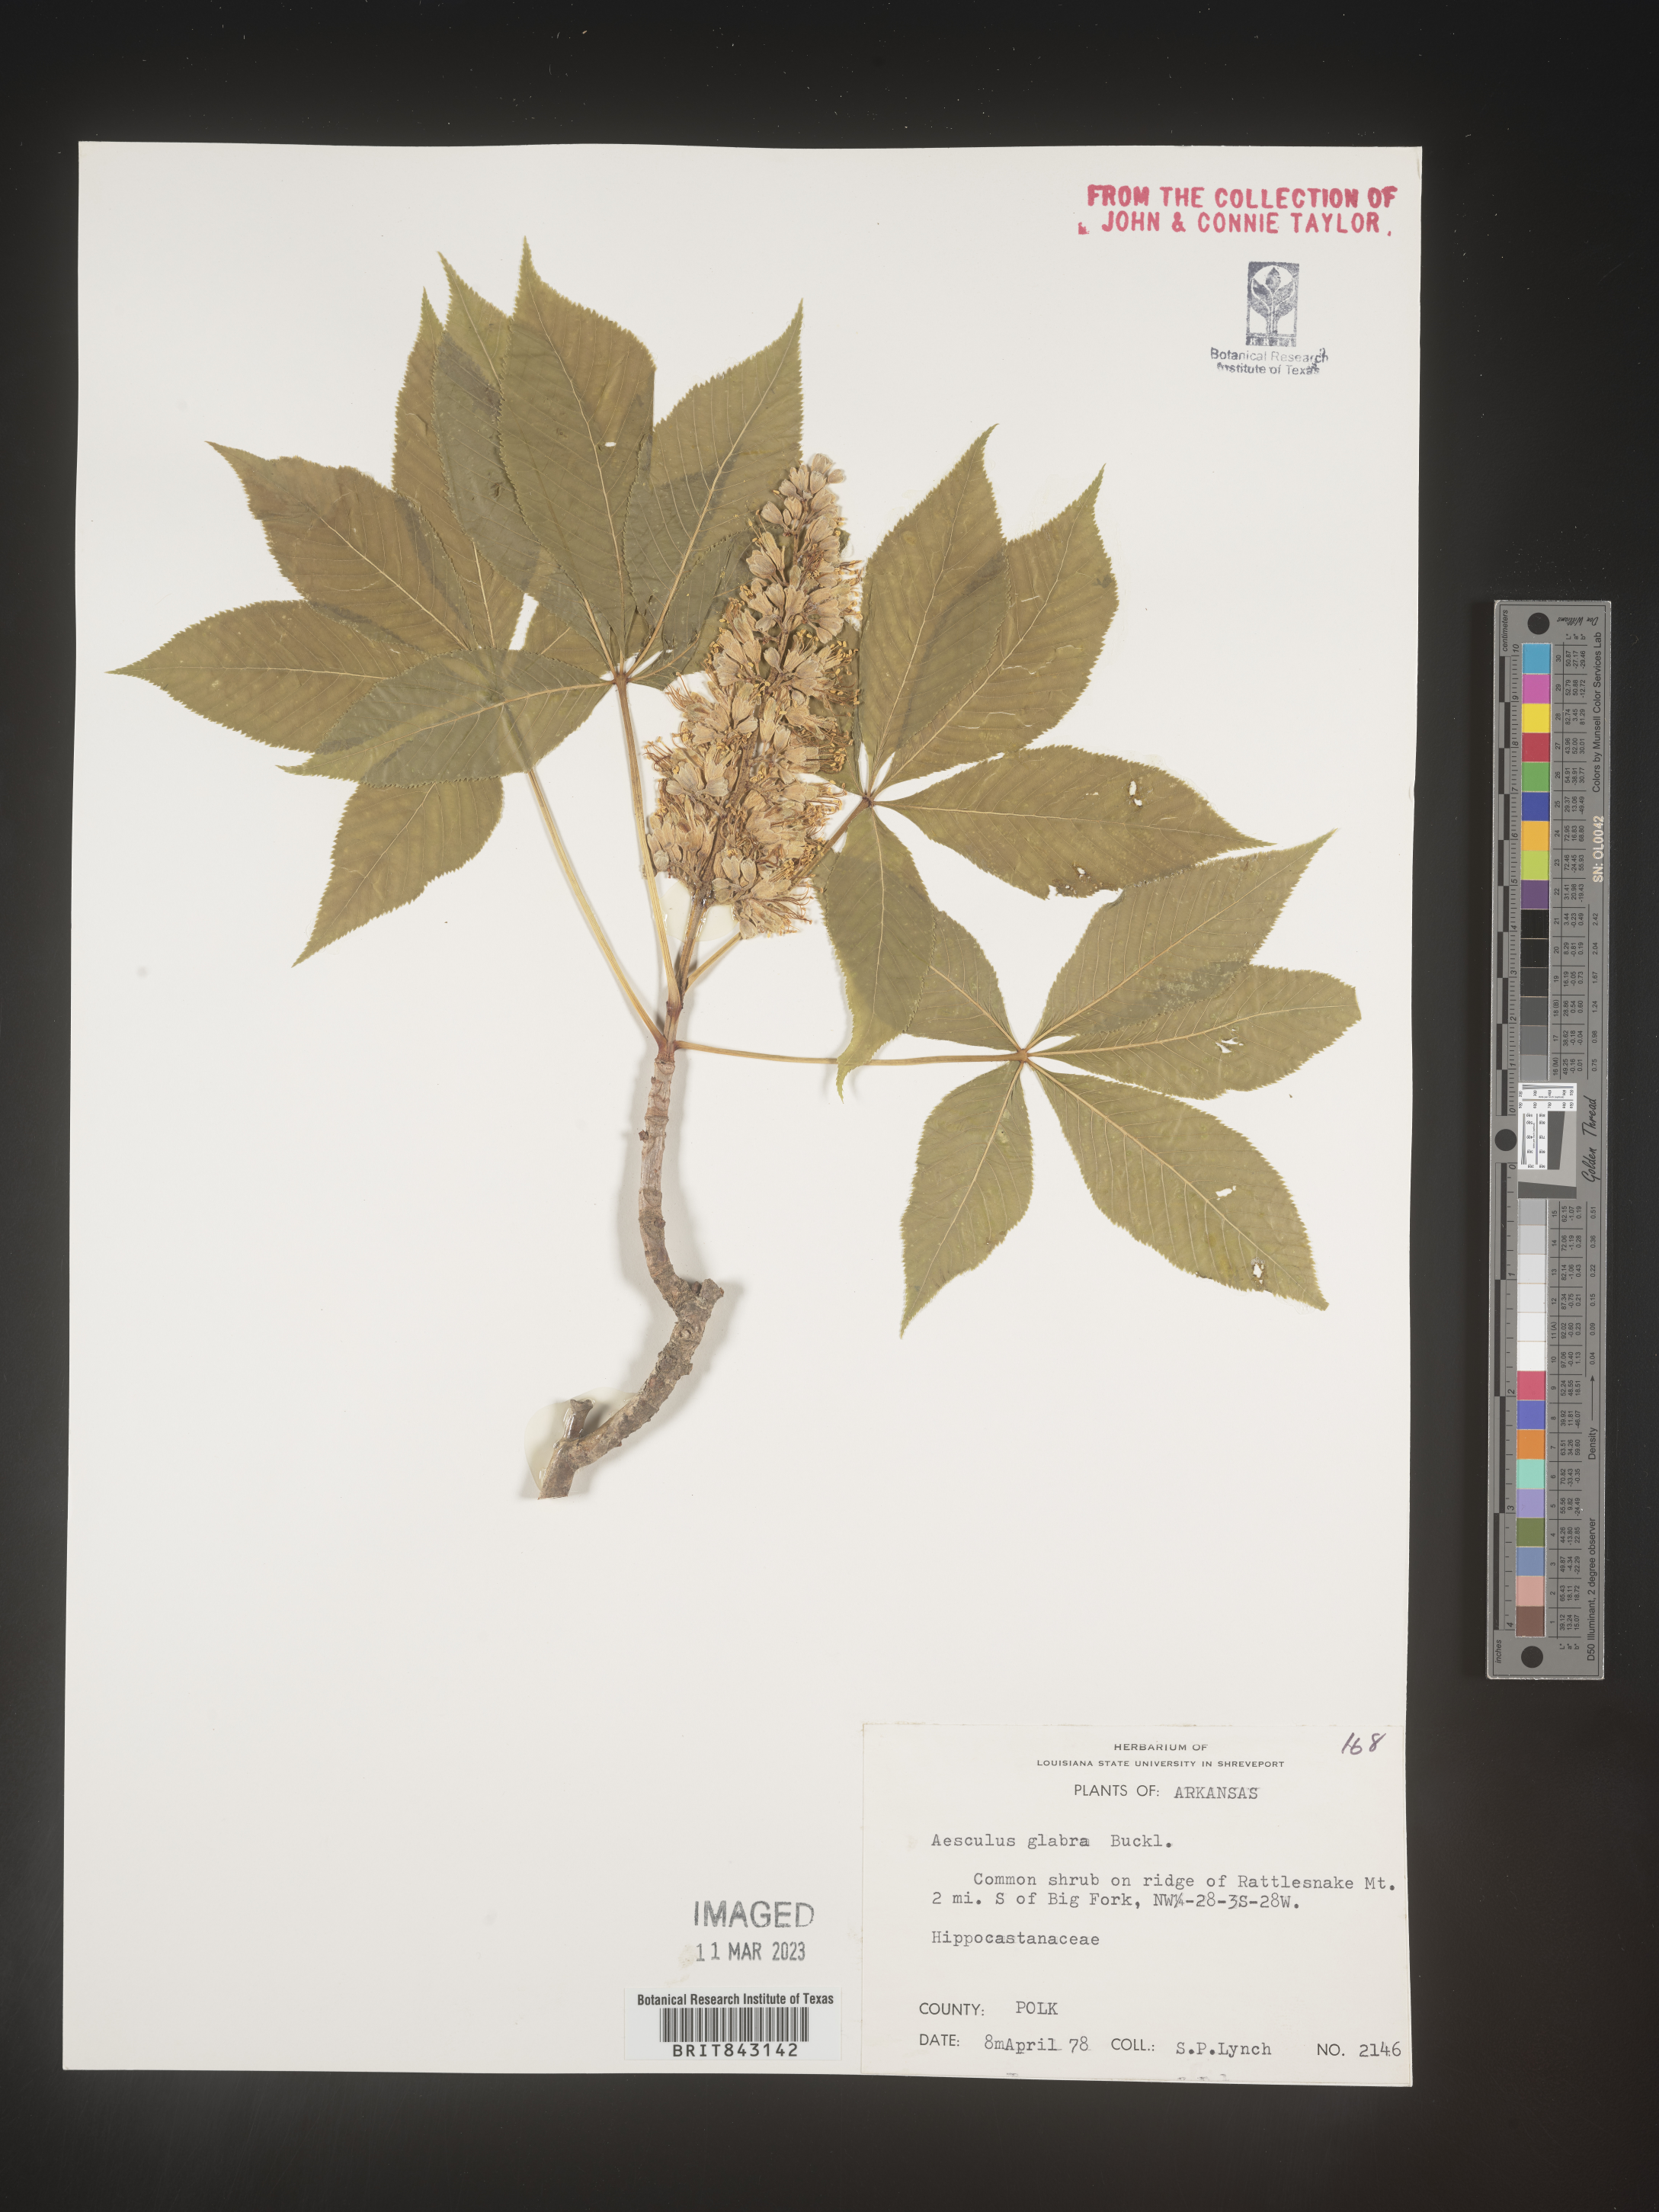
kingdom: Plantae
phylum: Tracheophyta
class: Magnoliopsida
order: Sapindales
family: Sapindaceae
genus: Aesculus
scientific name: Aesculus glabra
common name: Ohio buckeye
